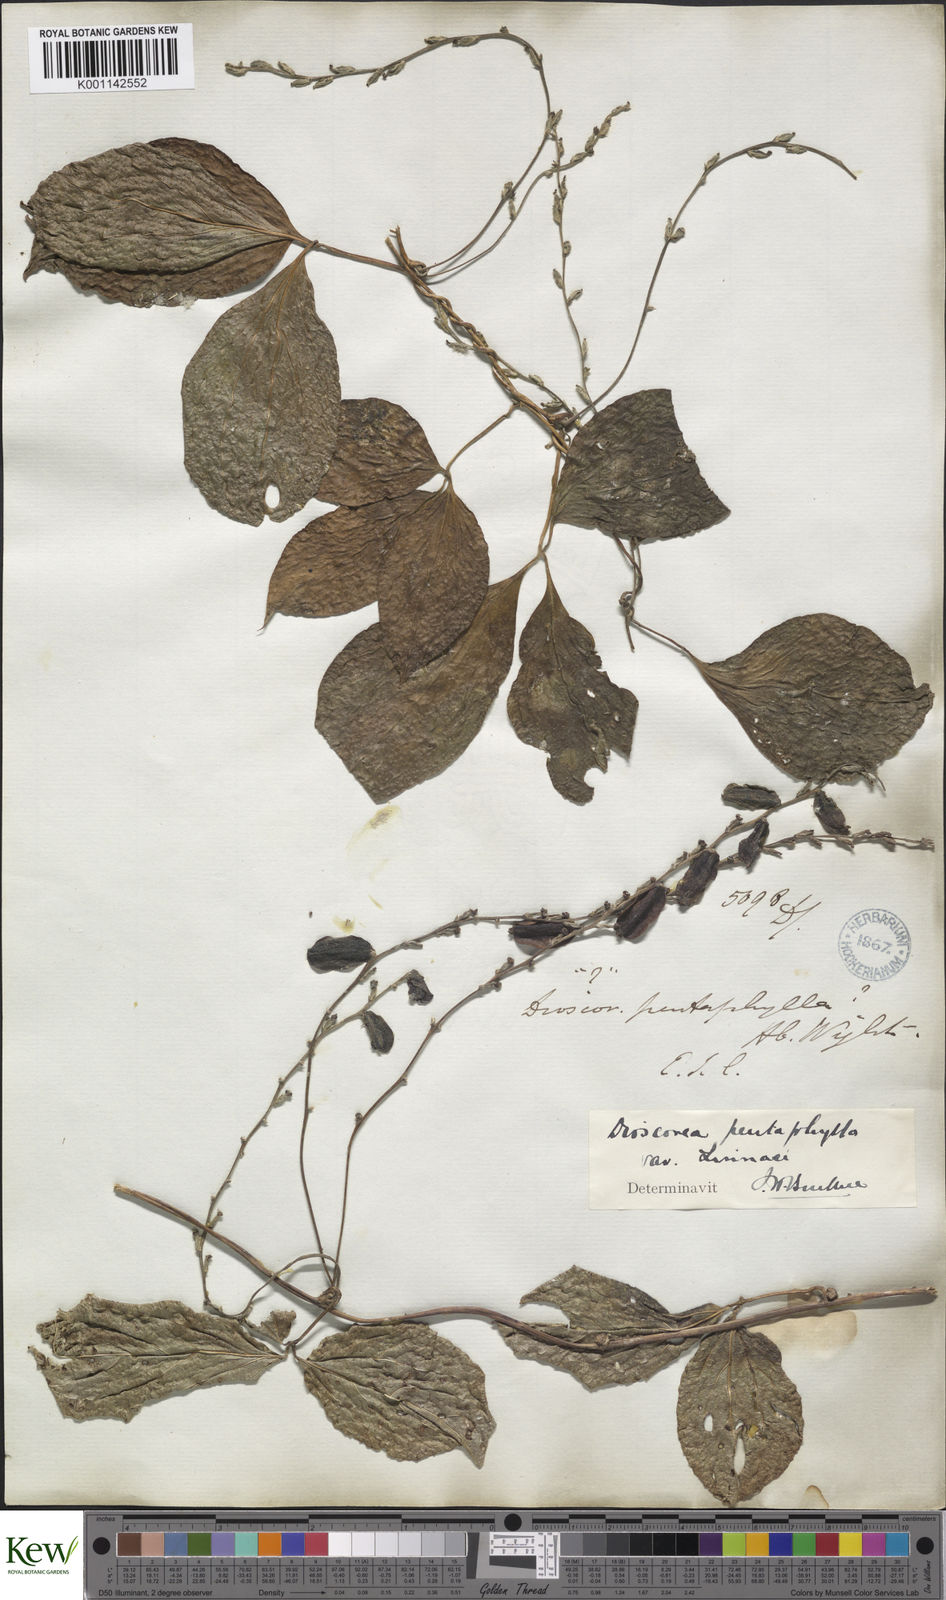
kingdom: Plantae
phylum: Tracheophyta
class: Liliopsida
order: Dioscoreales
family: Dioscoreaceae
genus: Dioscorea
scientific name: Dioscorea pentaphylla
